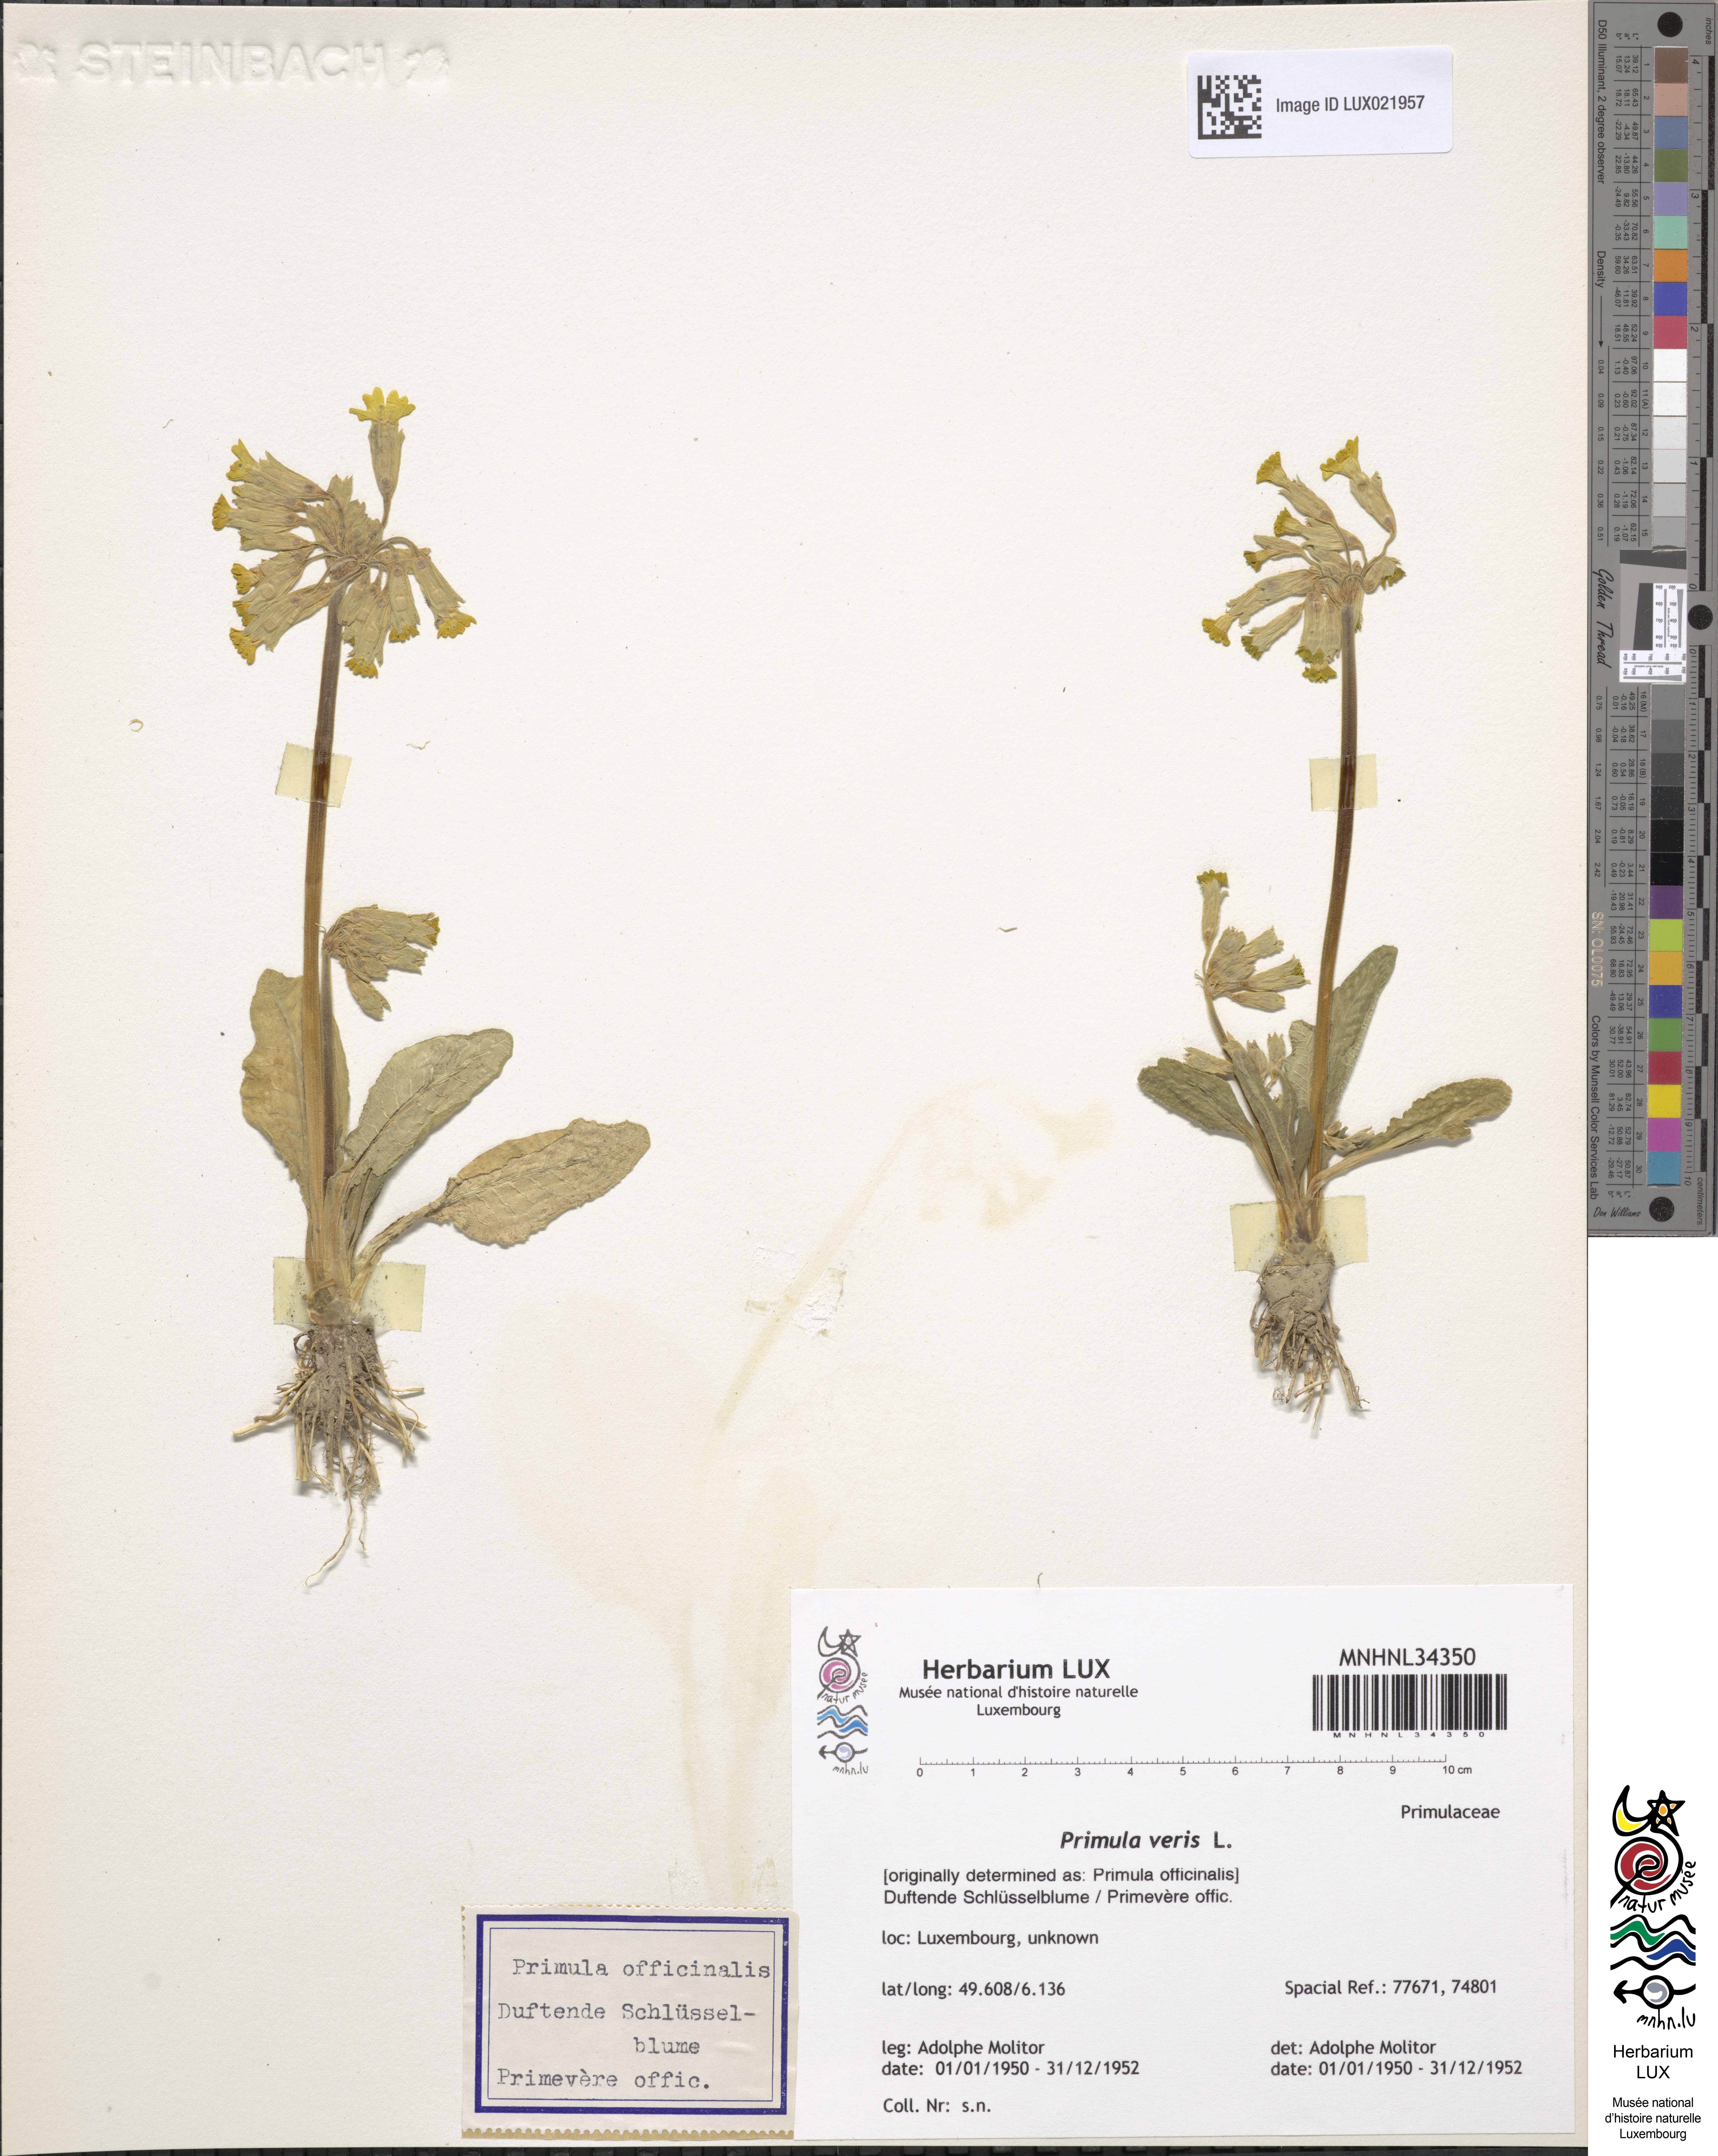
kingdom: Plantae
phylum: Tracheophyta
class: Magnoliopsida
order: Ericales
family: Primulaceae
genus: Primula
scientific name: Primula veris
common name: Cowslip
